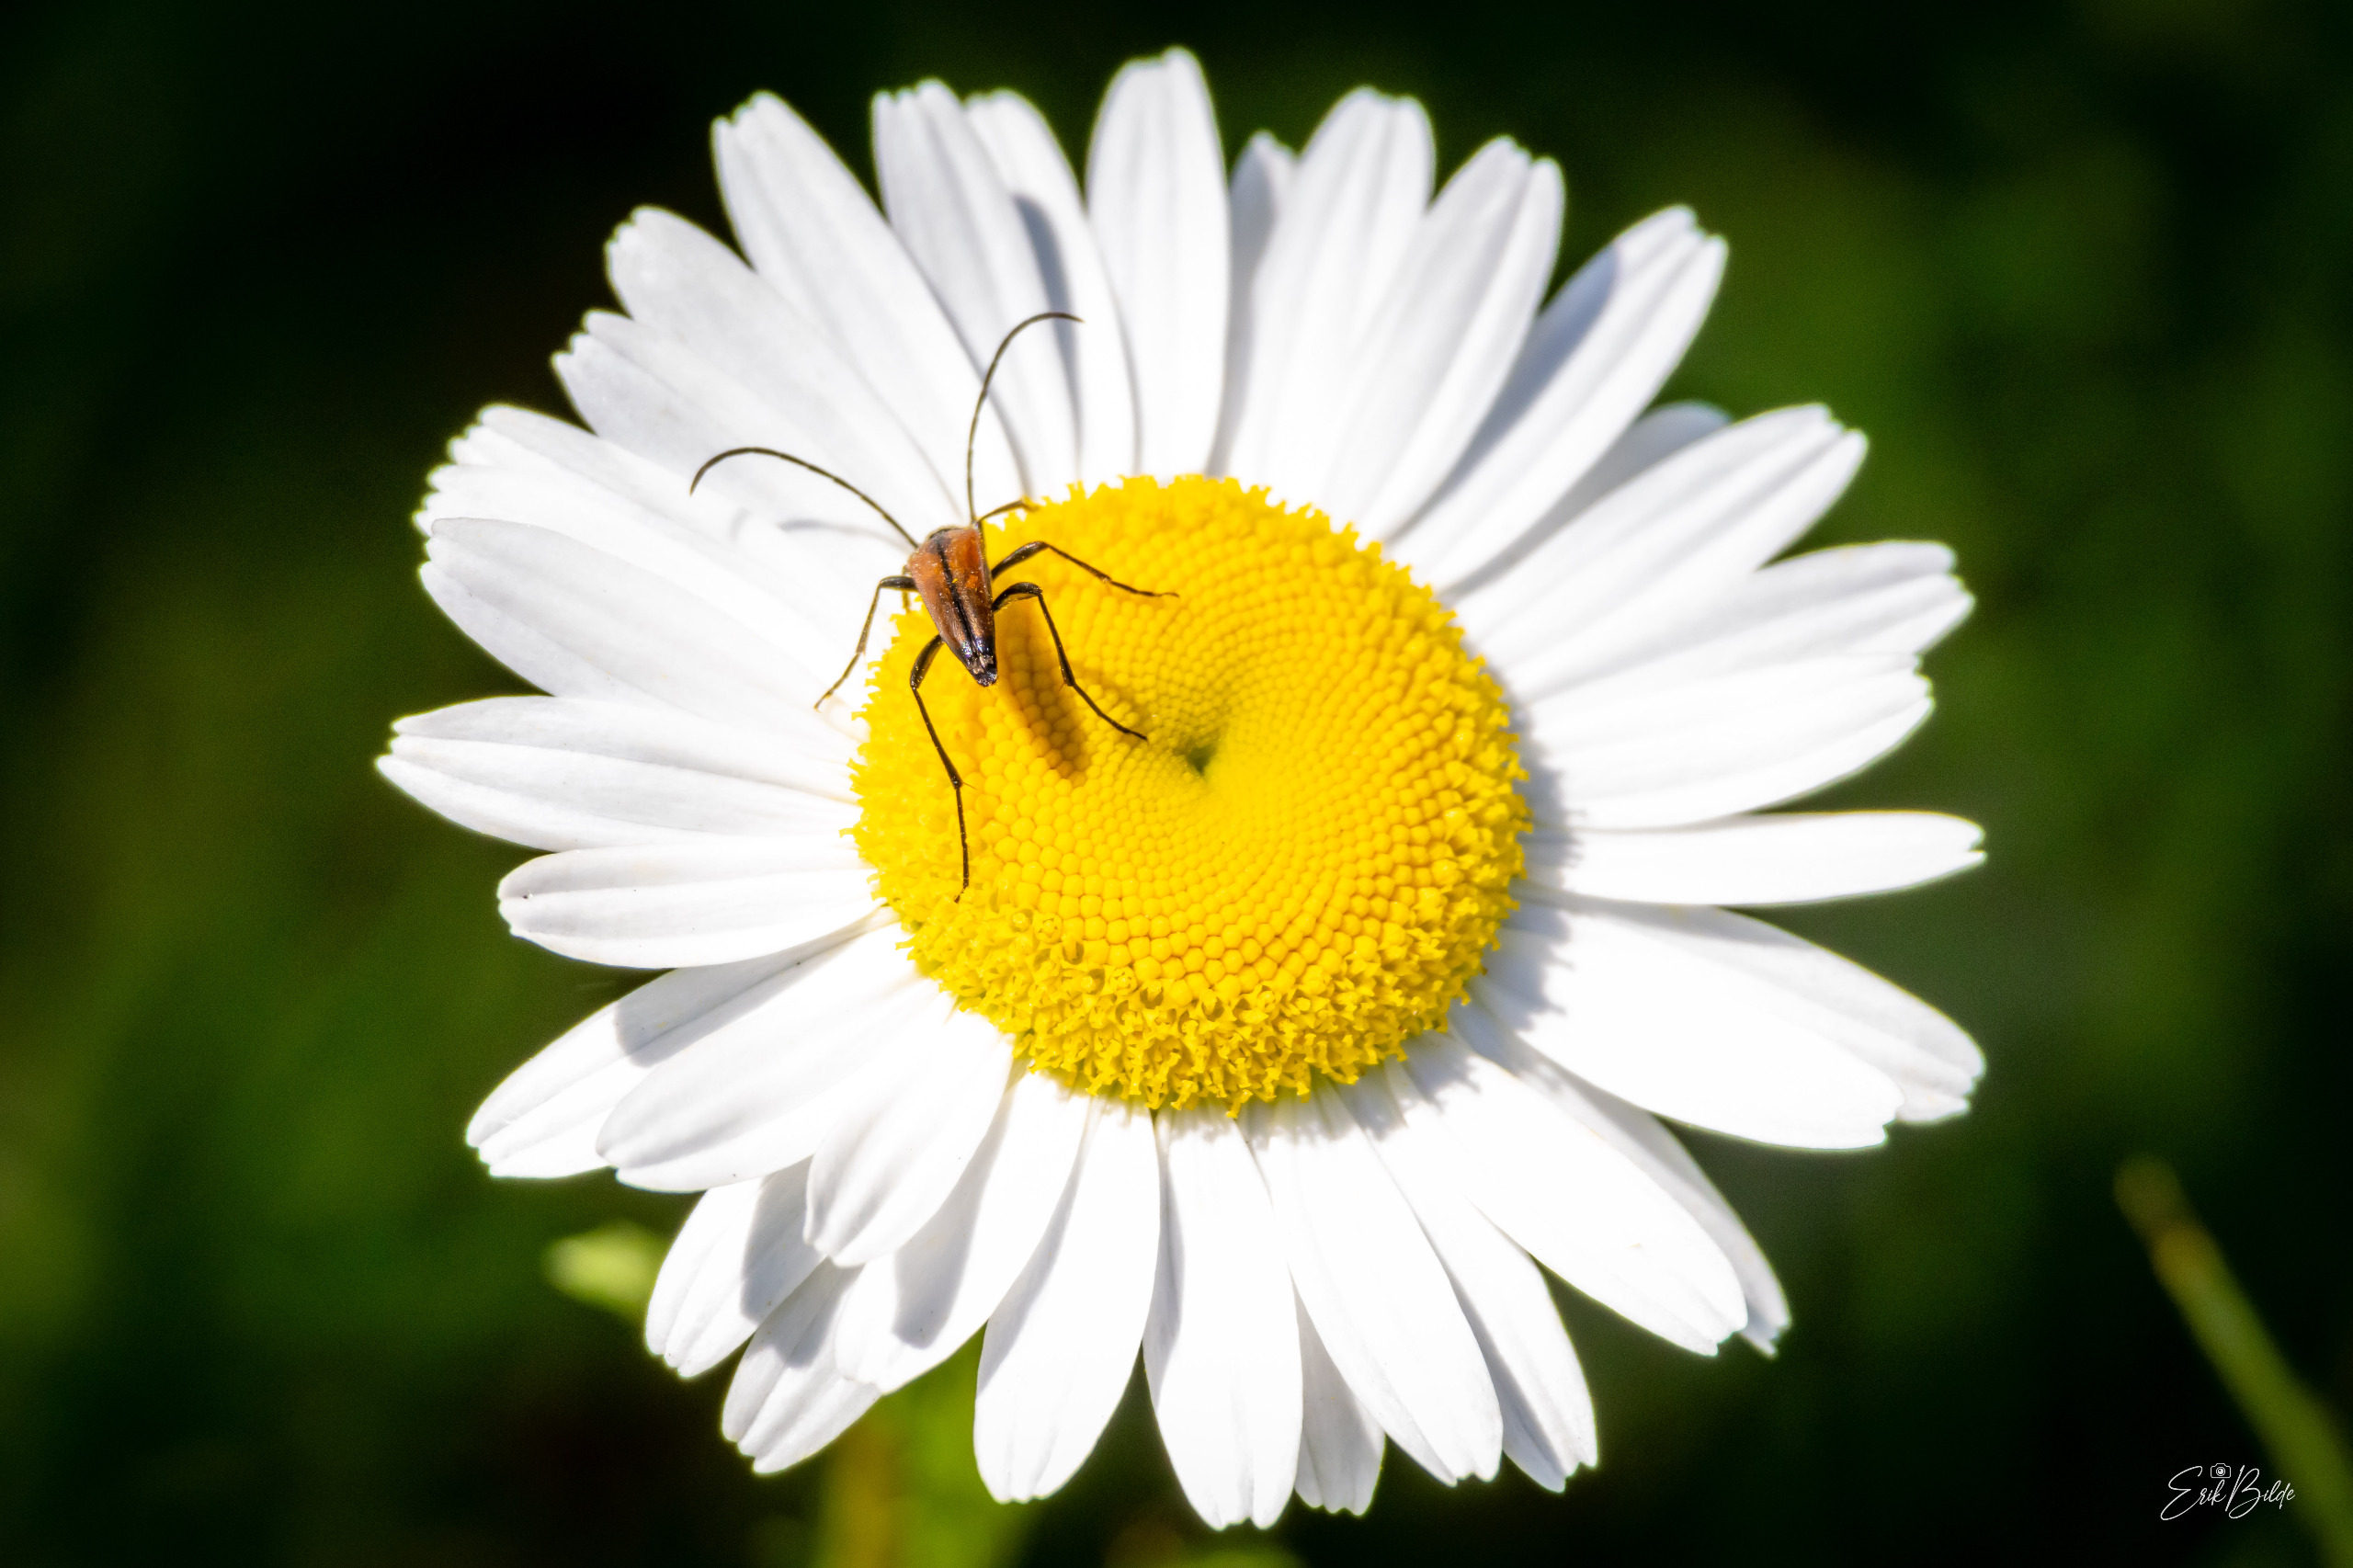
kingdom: Animalia
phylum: Arthropoda
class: Insecta
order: Coleoptera
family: Cerambycidae
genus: Stenurella
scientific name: Stenurella melanura
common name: Sortsømmet blomsterbuk
